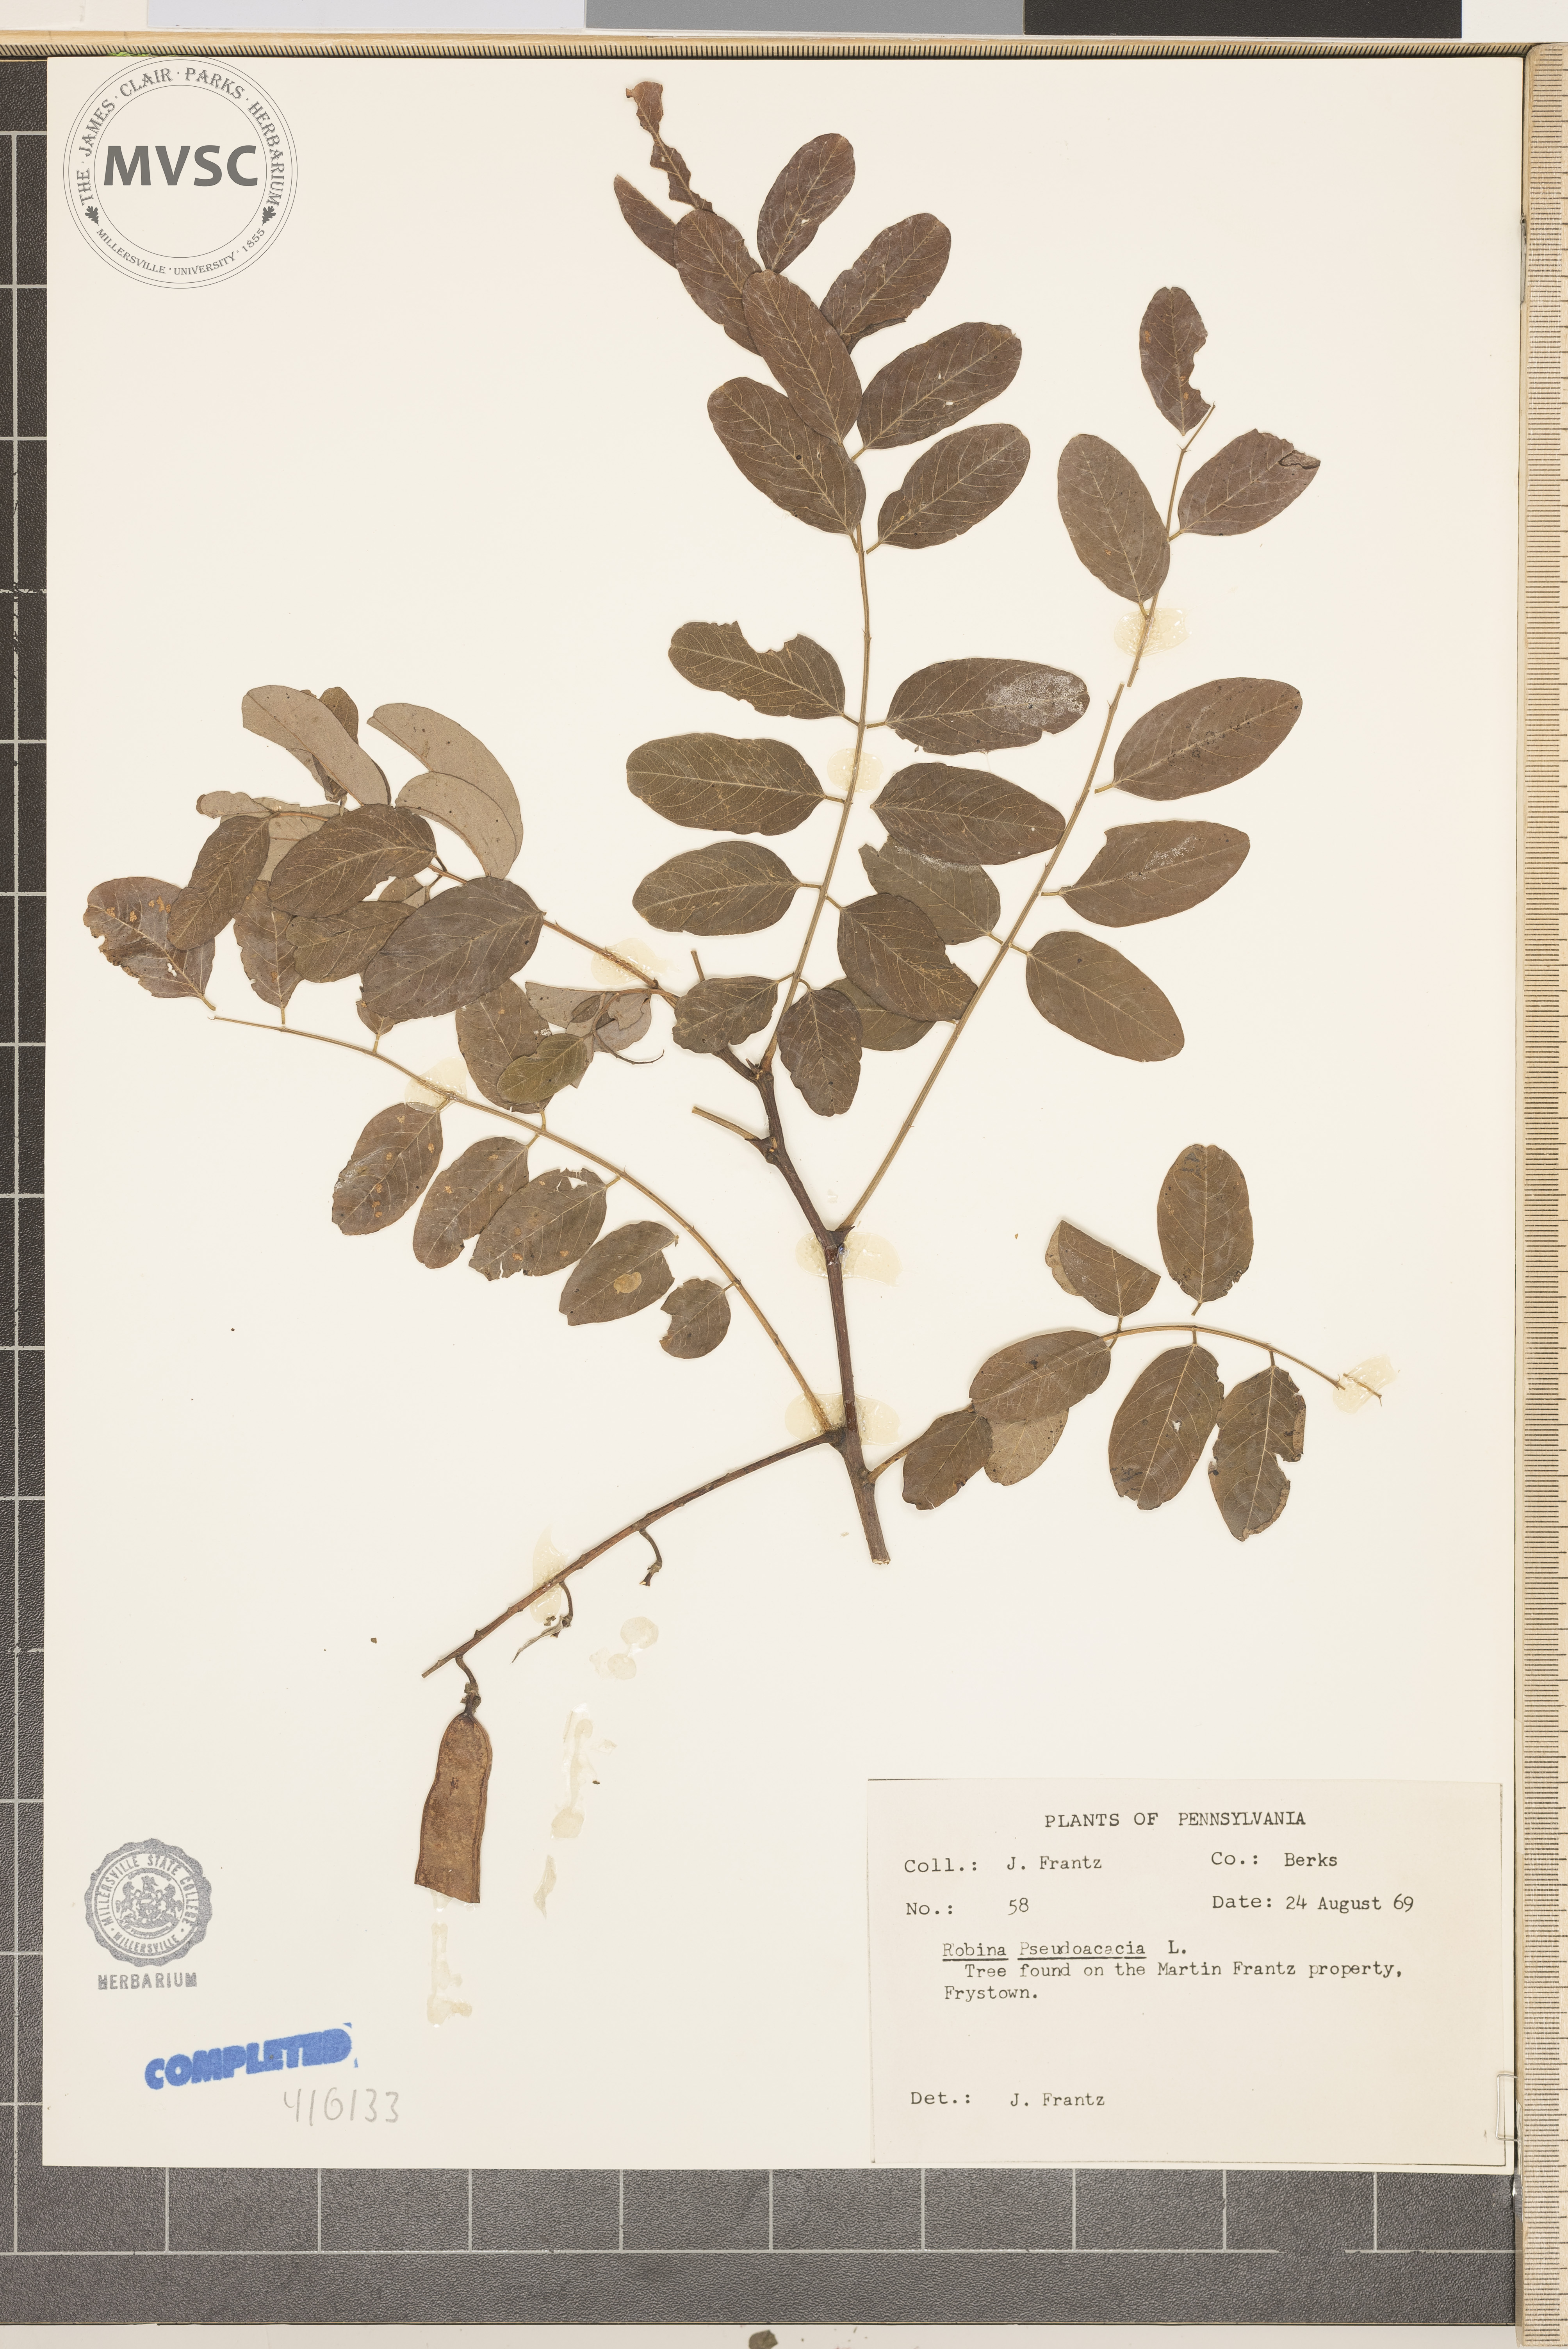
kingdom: Plantae
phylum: Tracheophyta
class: Magnoliopsida
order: Fabales
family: Fabaceae
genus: Robinia
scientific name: Robinia pseudoacacia
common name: Black locust
